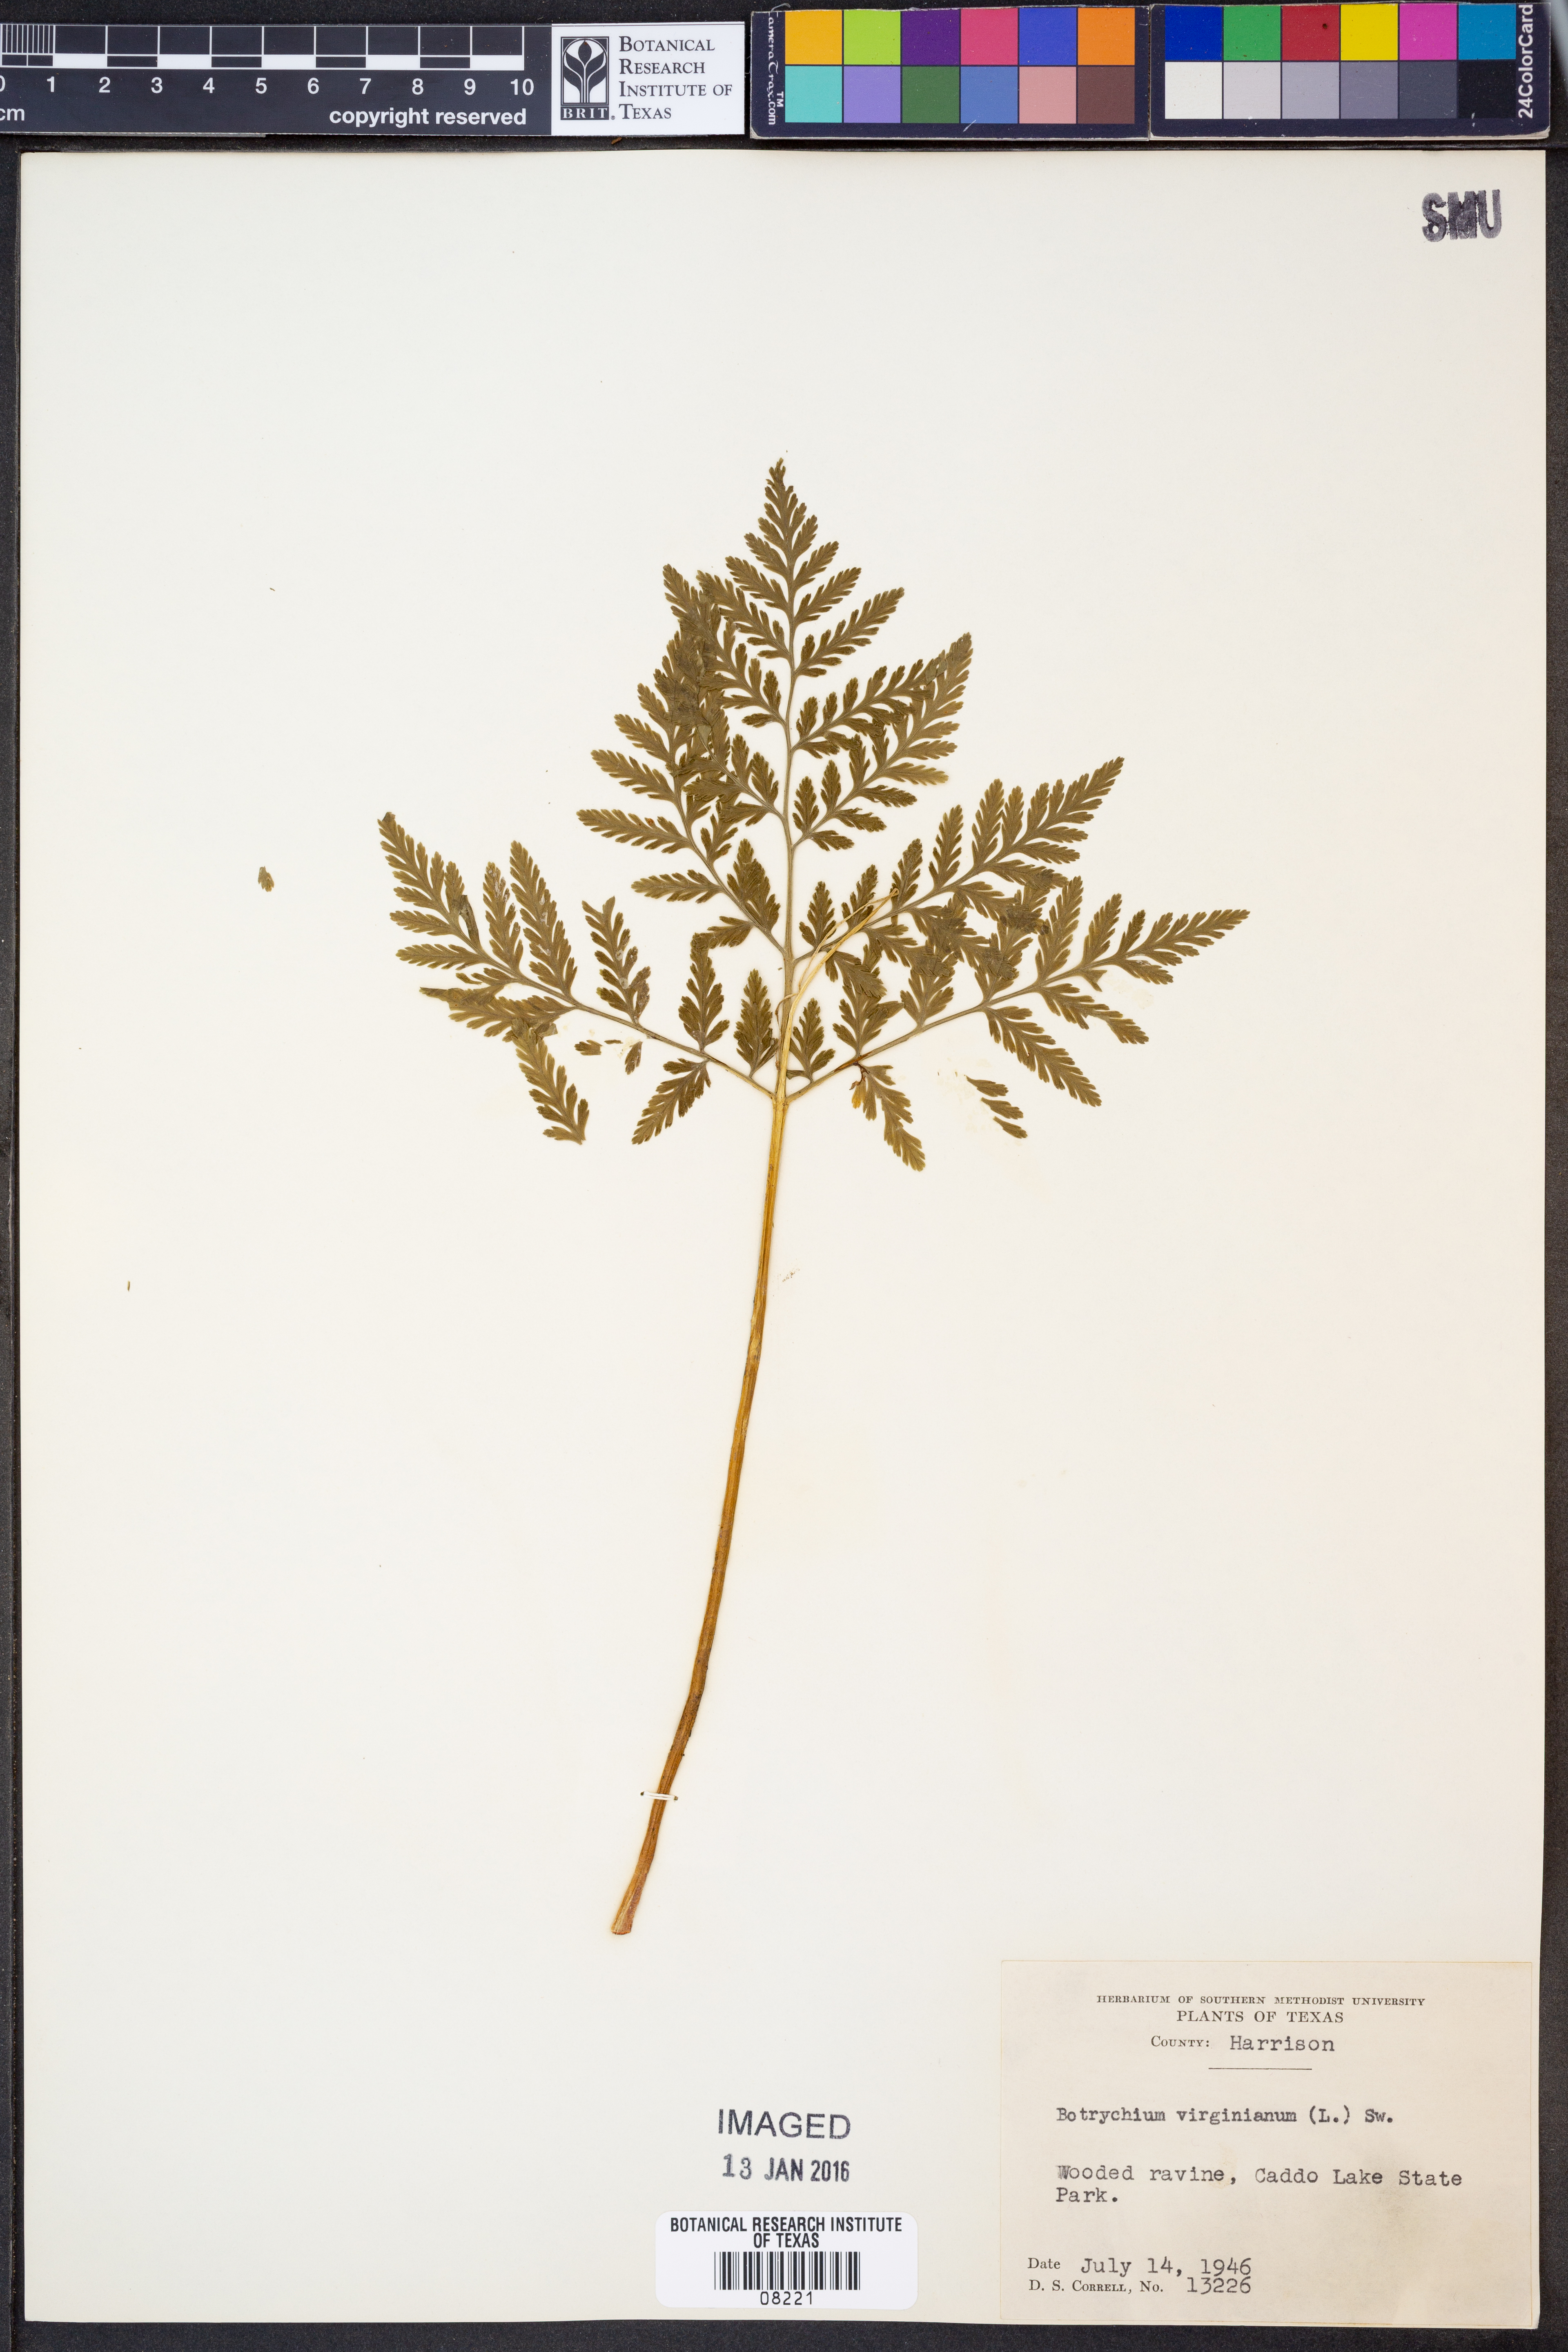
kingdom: Plantae
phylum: Tracheophyta
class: Polypodiopsida
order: Ophioglossales
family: Ophioglossaceae
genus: Botrypus
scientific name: Botrypus virginianus
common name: Common grapefern
